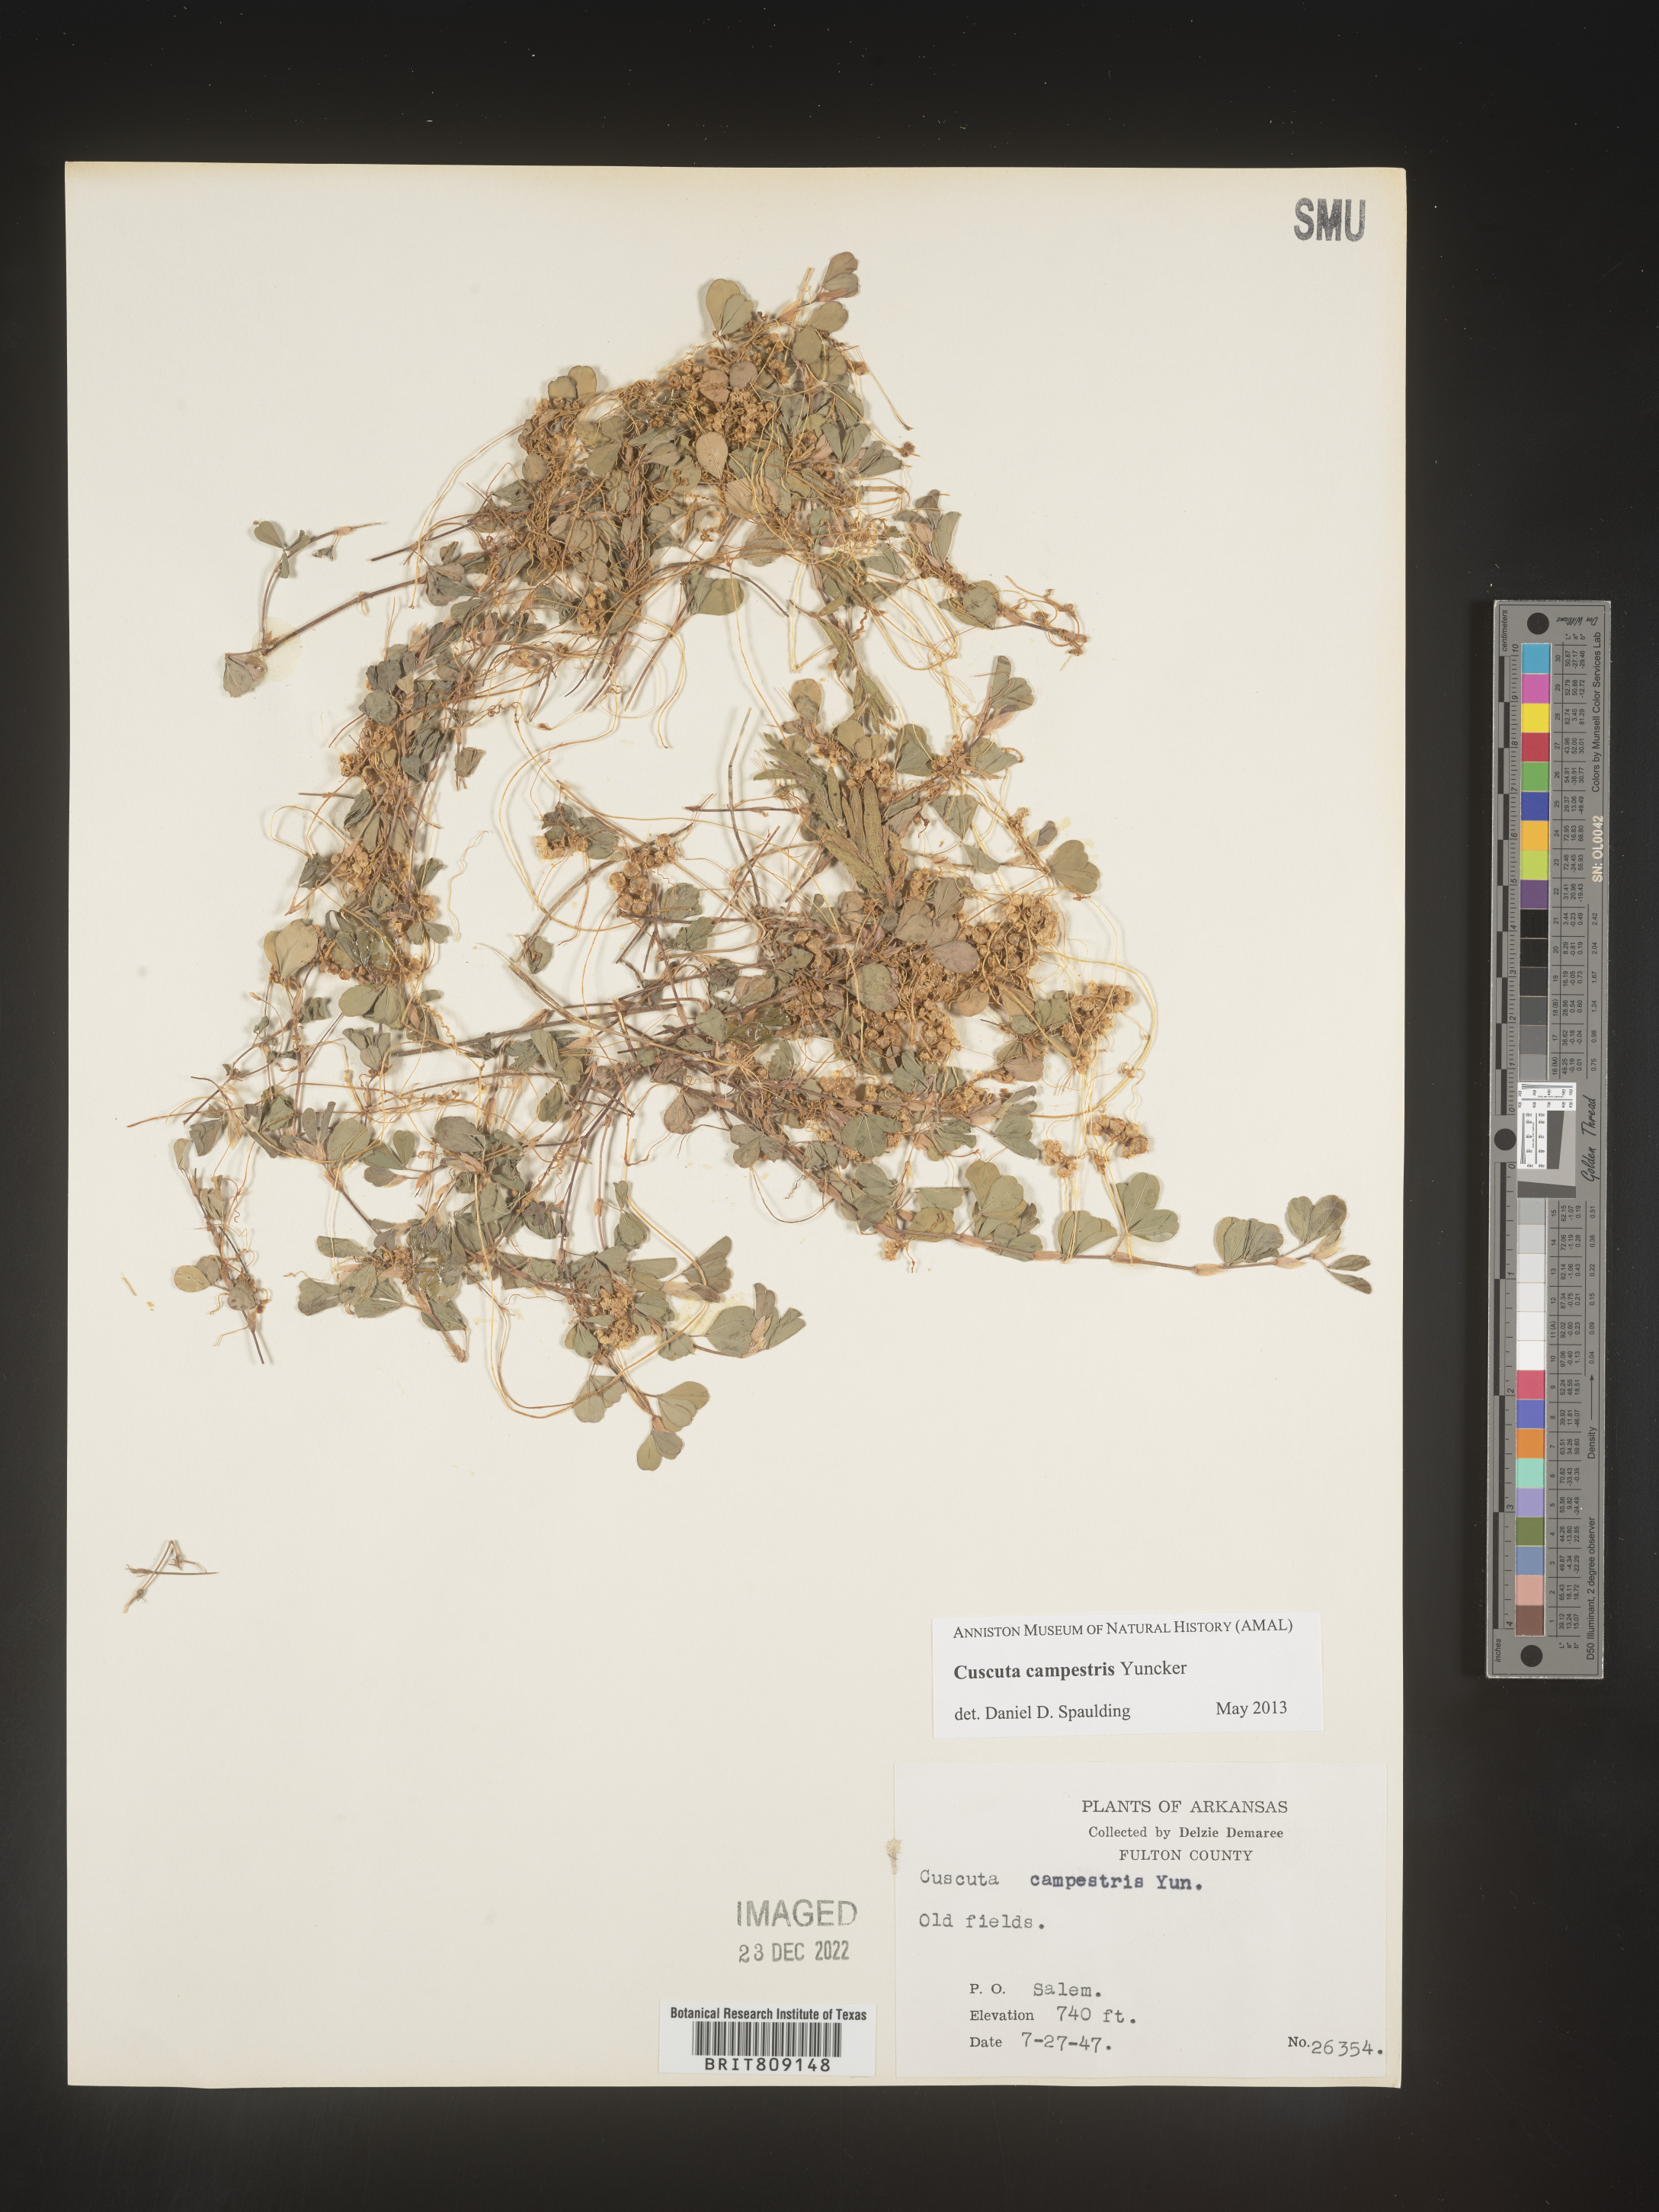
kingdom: Plantae
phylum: Tracheophyta
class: Magnoliopsida
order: Solanales
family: Convolvulaceae
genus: Cuscuta
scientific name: Cuscuta campestris
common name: Yellow dodder
